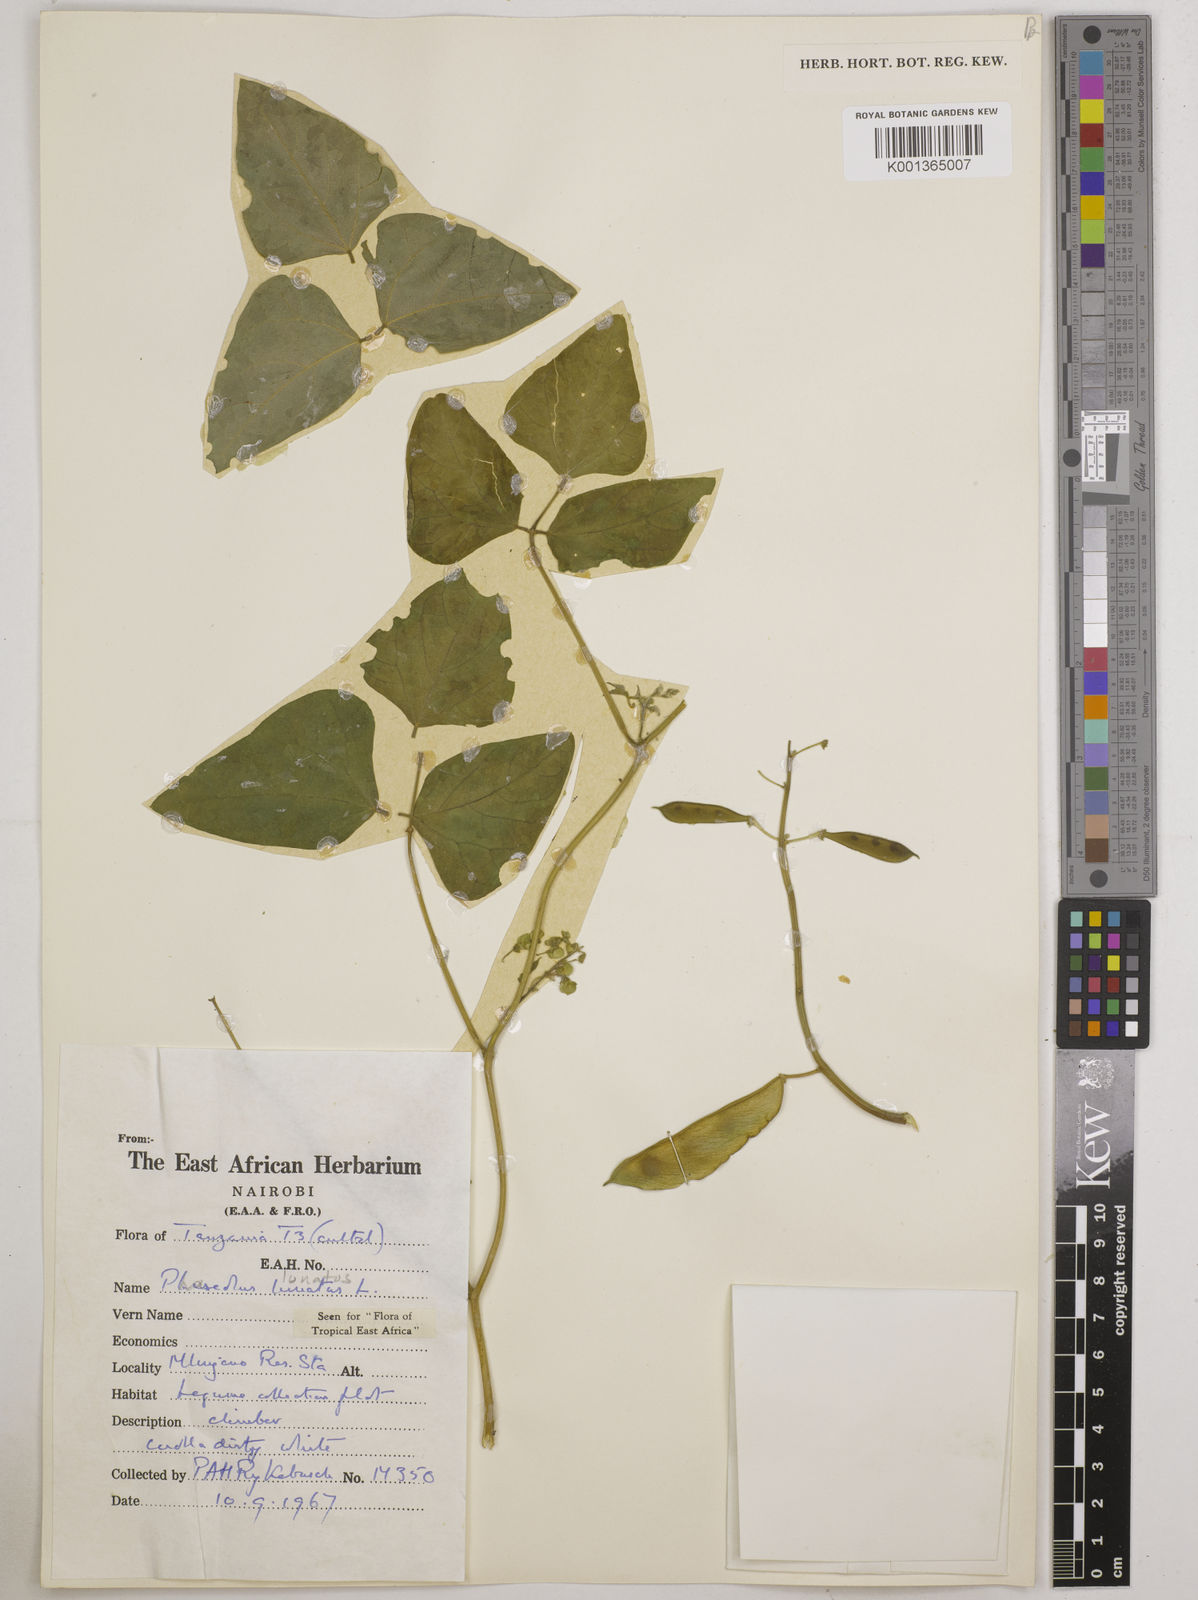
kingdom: Plantae
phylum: Tracheophyta
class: Magnoliopsida
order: Fabales
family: Fabaceae
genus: Phaseolus
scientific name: Phaseolus lunatus
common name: Sieva bean
